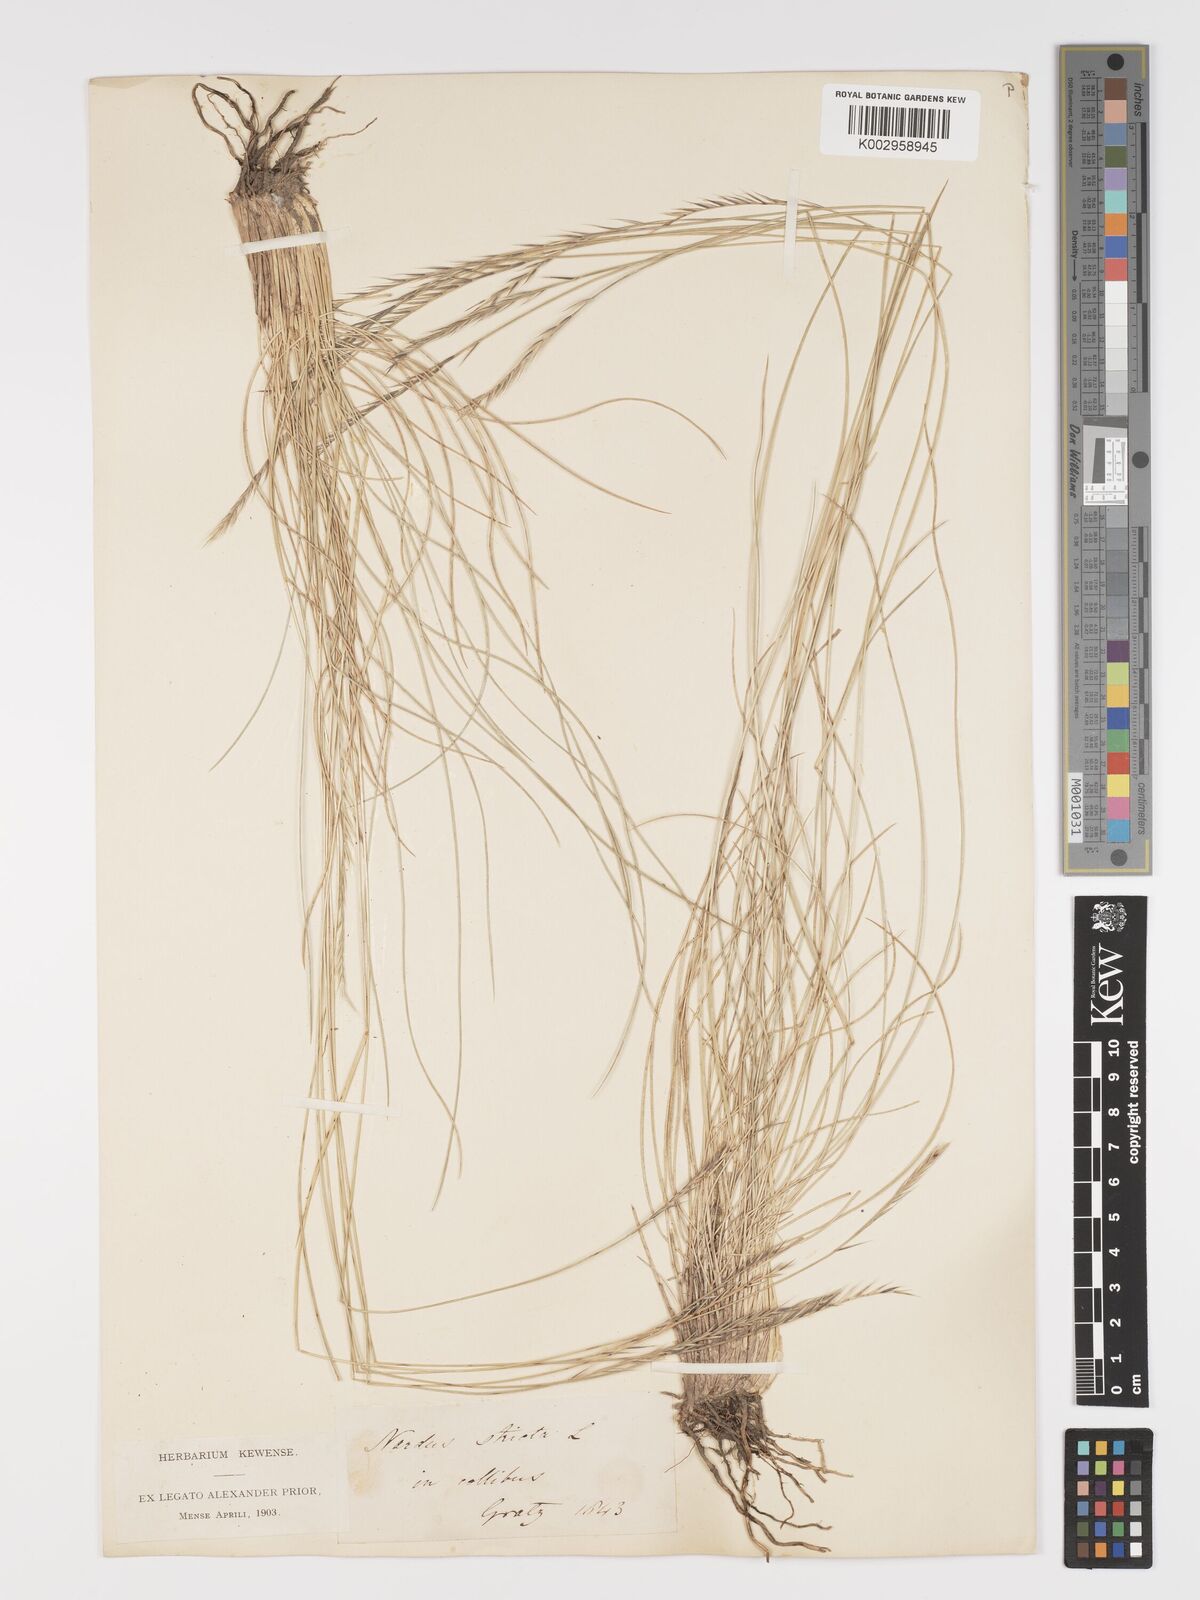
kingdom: Plantae
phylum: Tracheophyta
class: Liliopsida
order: Poales
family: Poaceae
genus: Nardus
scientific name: Nardus stricta
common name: Mat-grass
